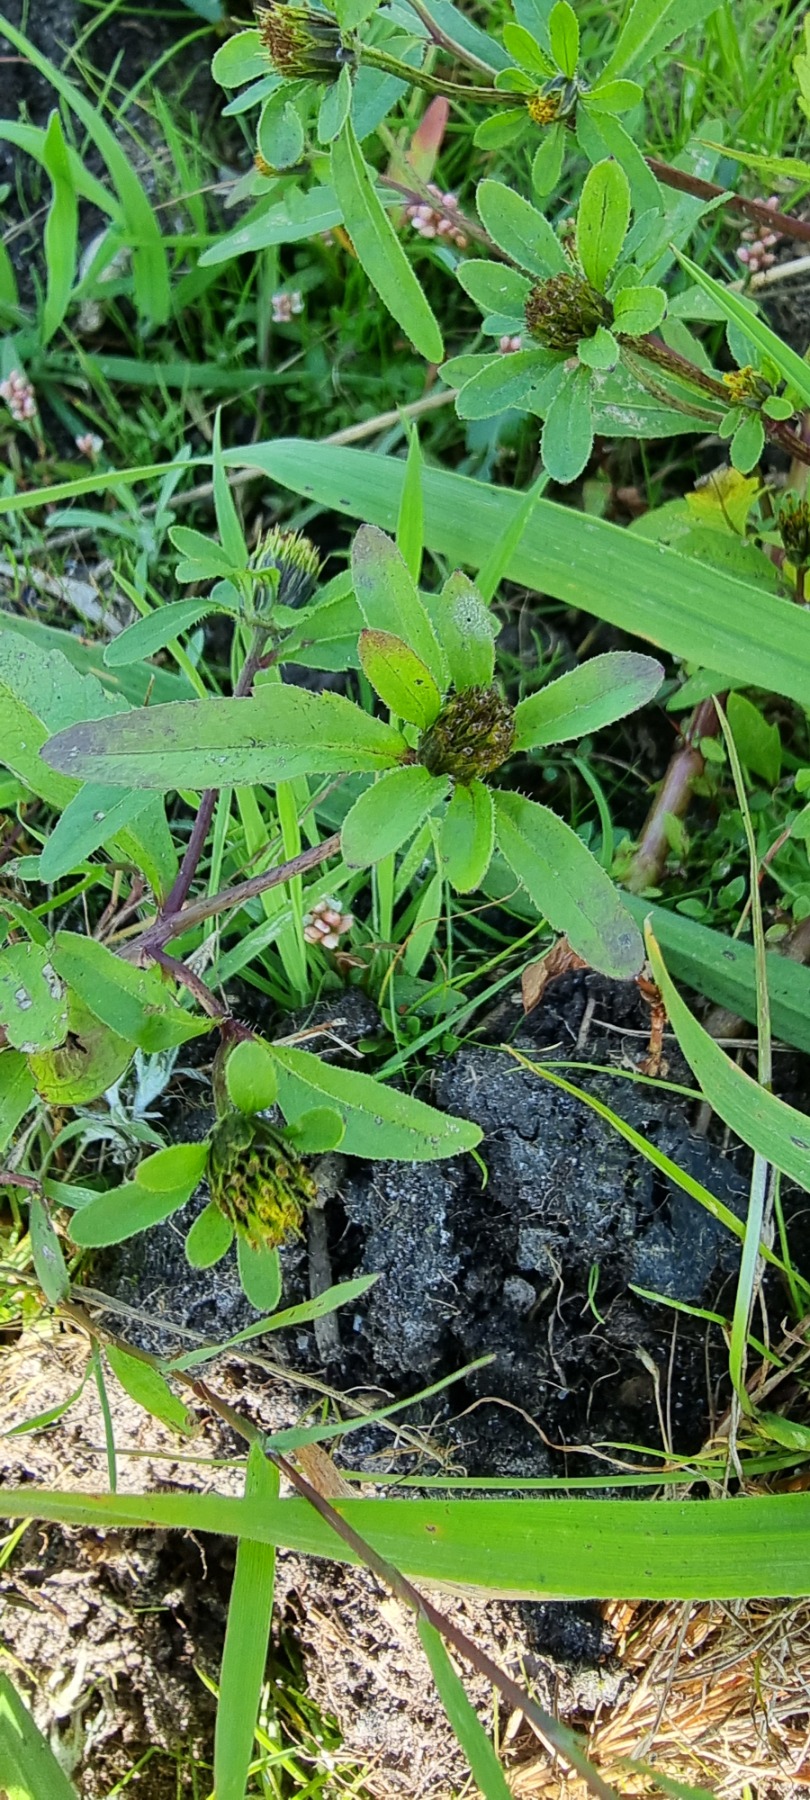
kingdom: Plantae
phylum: Tracheophyta
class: Magnoliopsida
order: Asterales
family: Asteraceae
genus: Bidens
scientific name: Bidens tripartita
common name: Fliget brøndsel
